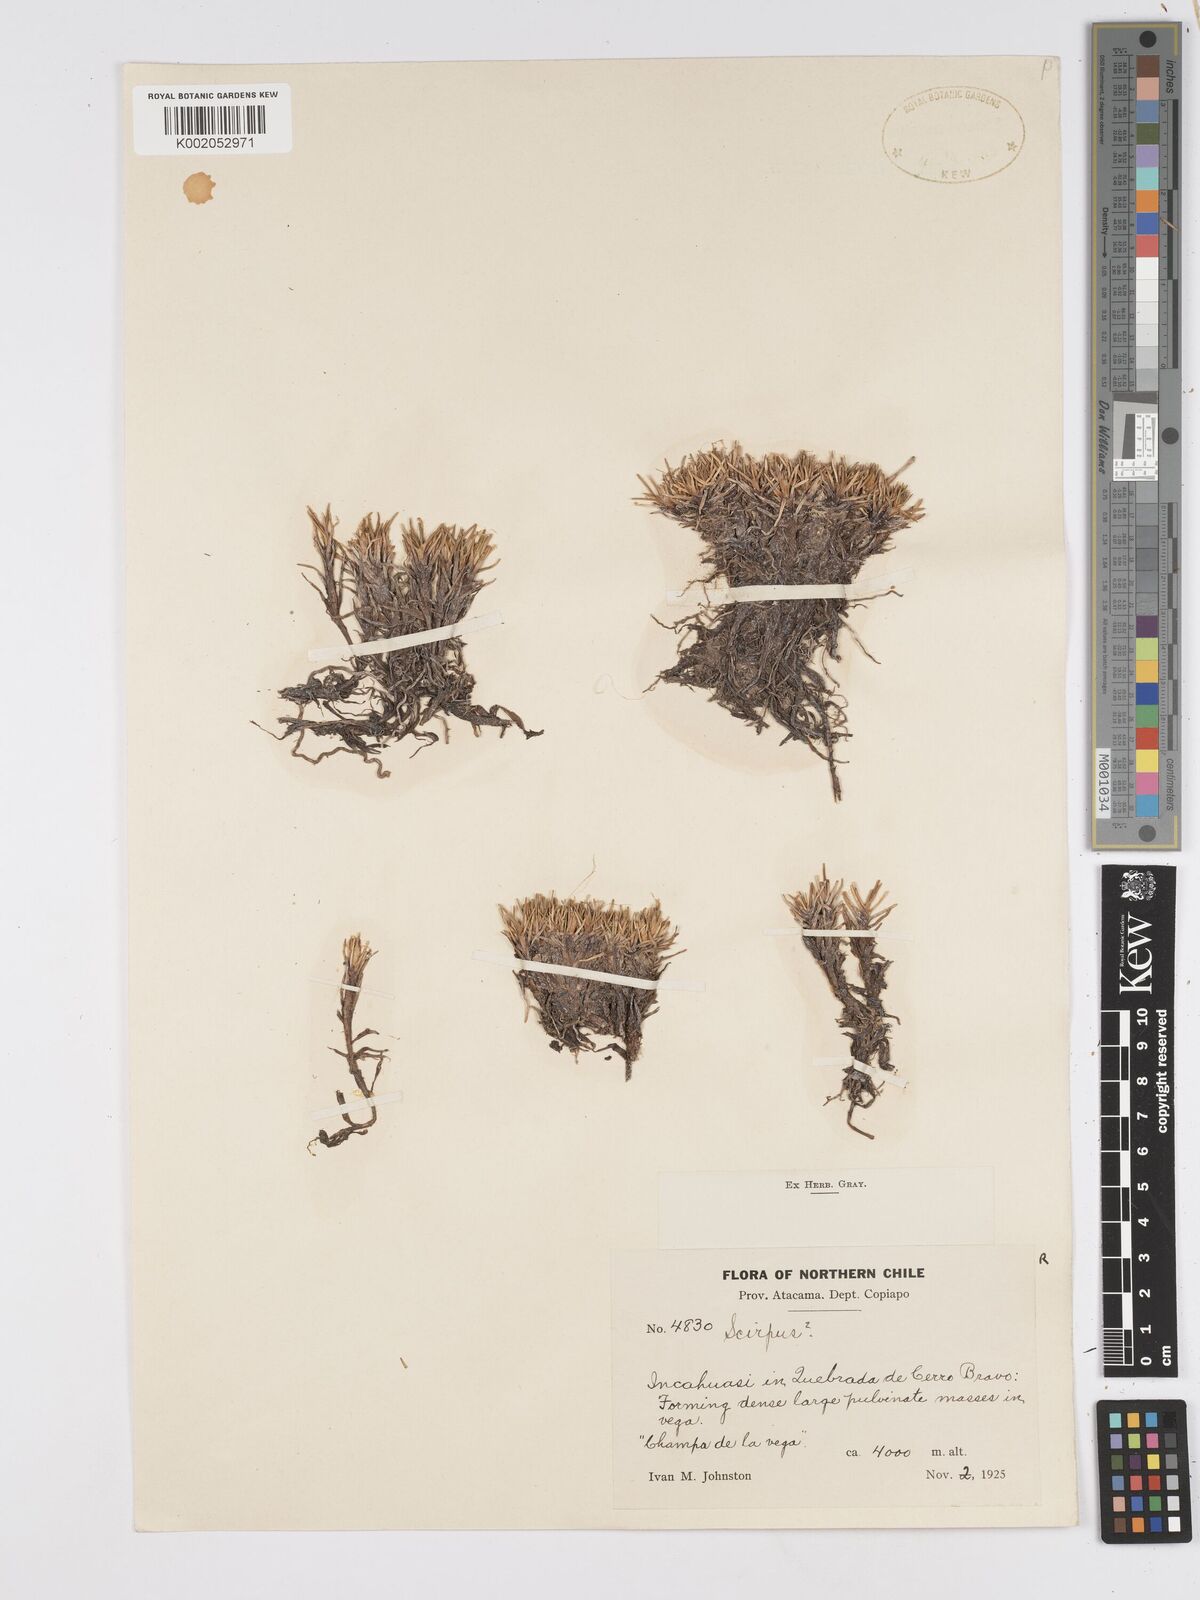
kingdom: Plantae
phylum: Tracheophyta
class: Liliopsida
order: Poales
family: Cyperaceae
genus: Scirpus
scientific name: Scirpus
